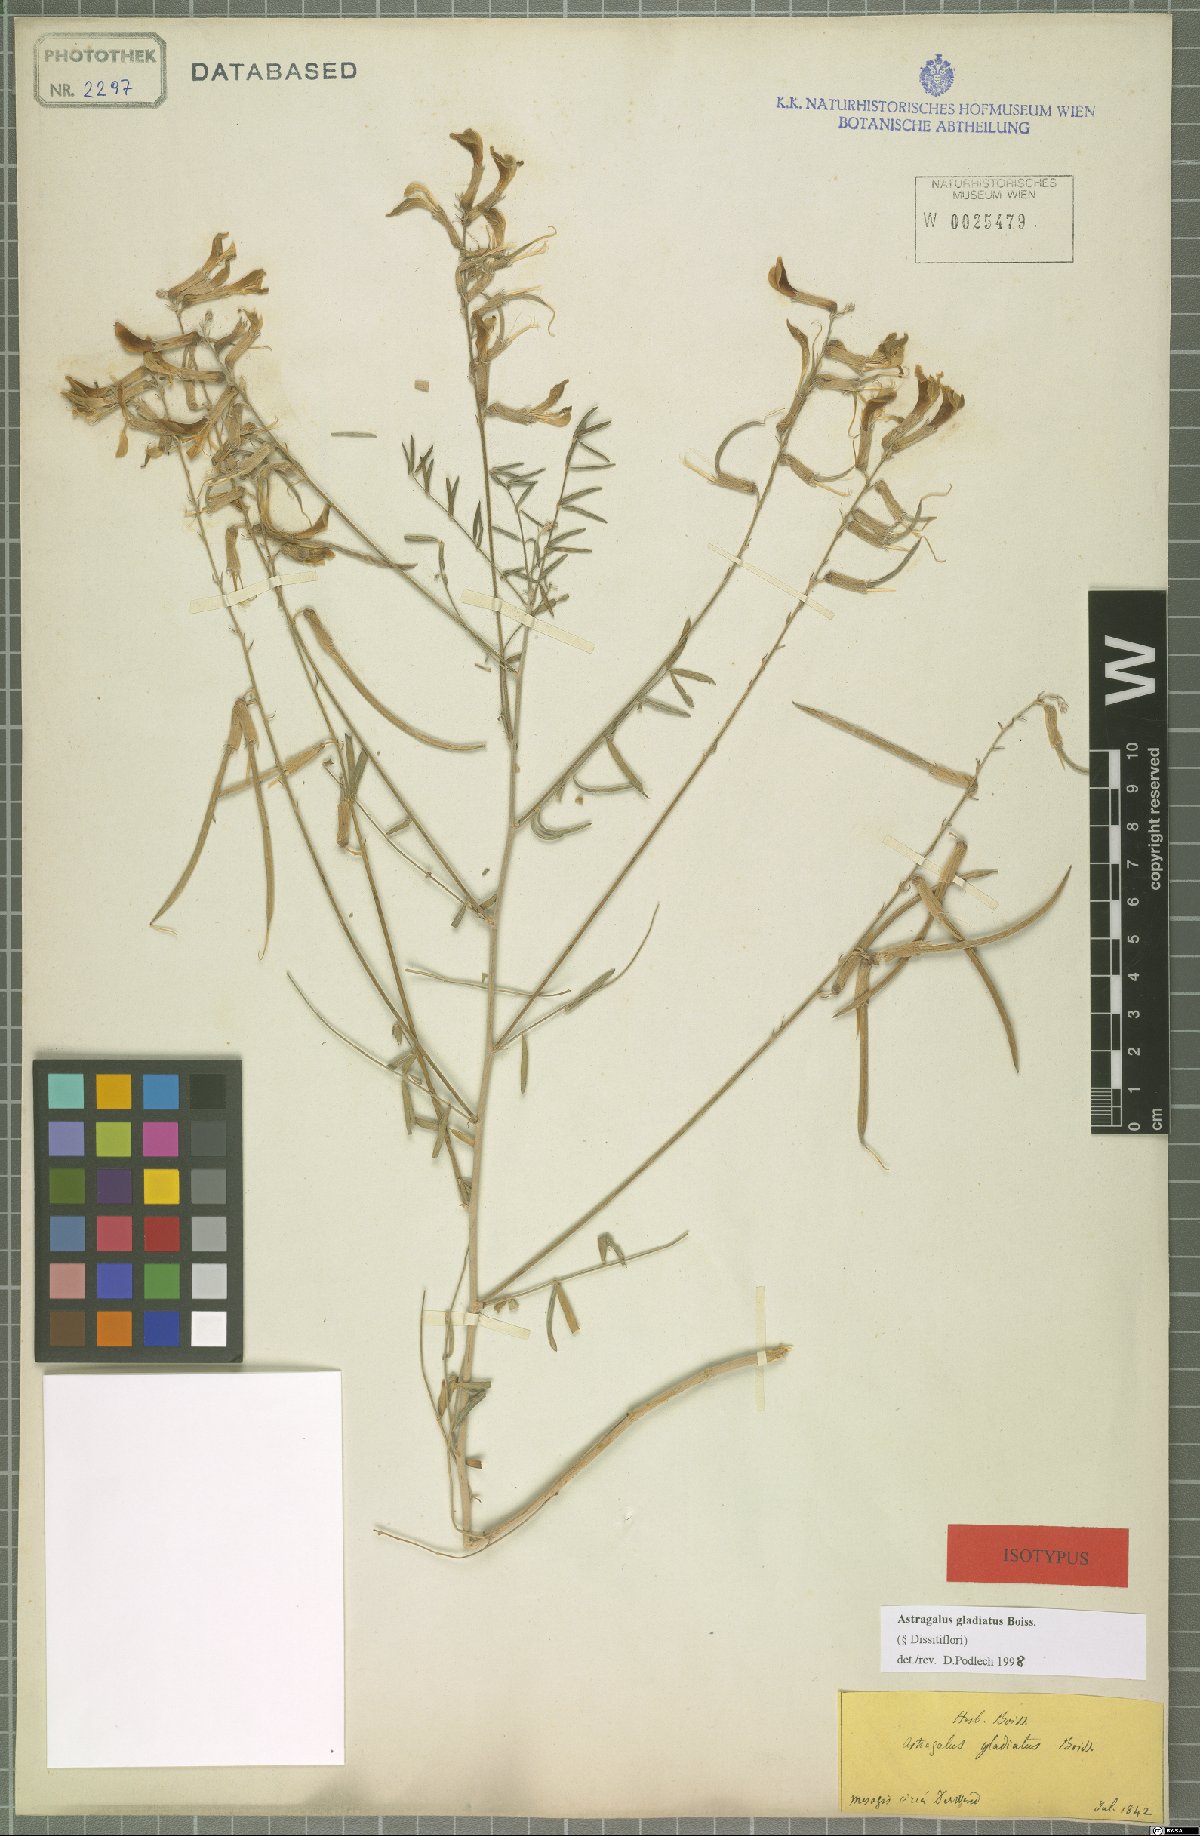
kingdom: Plantae
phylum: Tracheophyta
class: Magnoliopsida
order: Fabales
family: Fabaceae
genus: Astragalus
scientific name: Astragalus gladiatus
